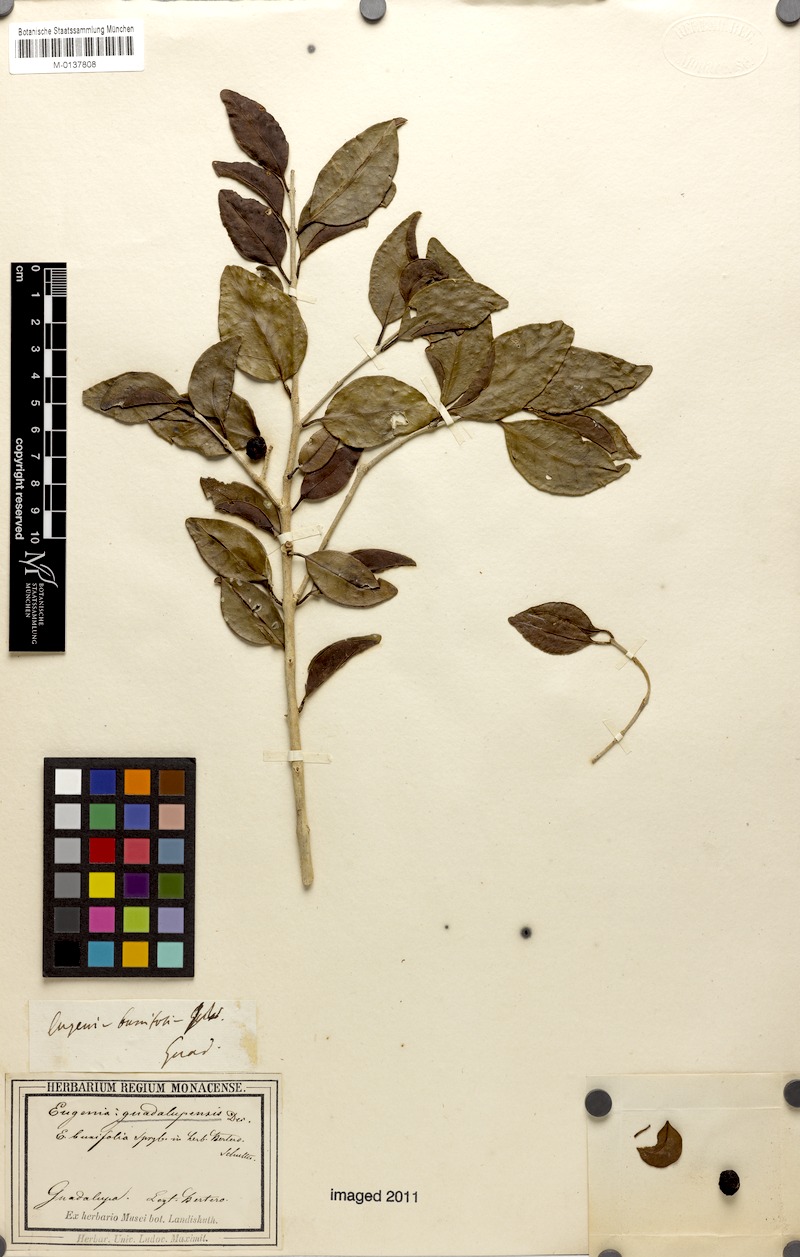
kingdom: Plantae
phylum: Tracheophyta
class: Magnoliopsida
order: Myrtales
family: Myrtaceae
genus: Eugenia
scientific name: Eugenia axillaris
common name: Choaky berry
